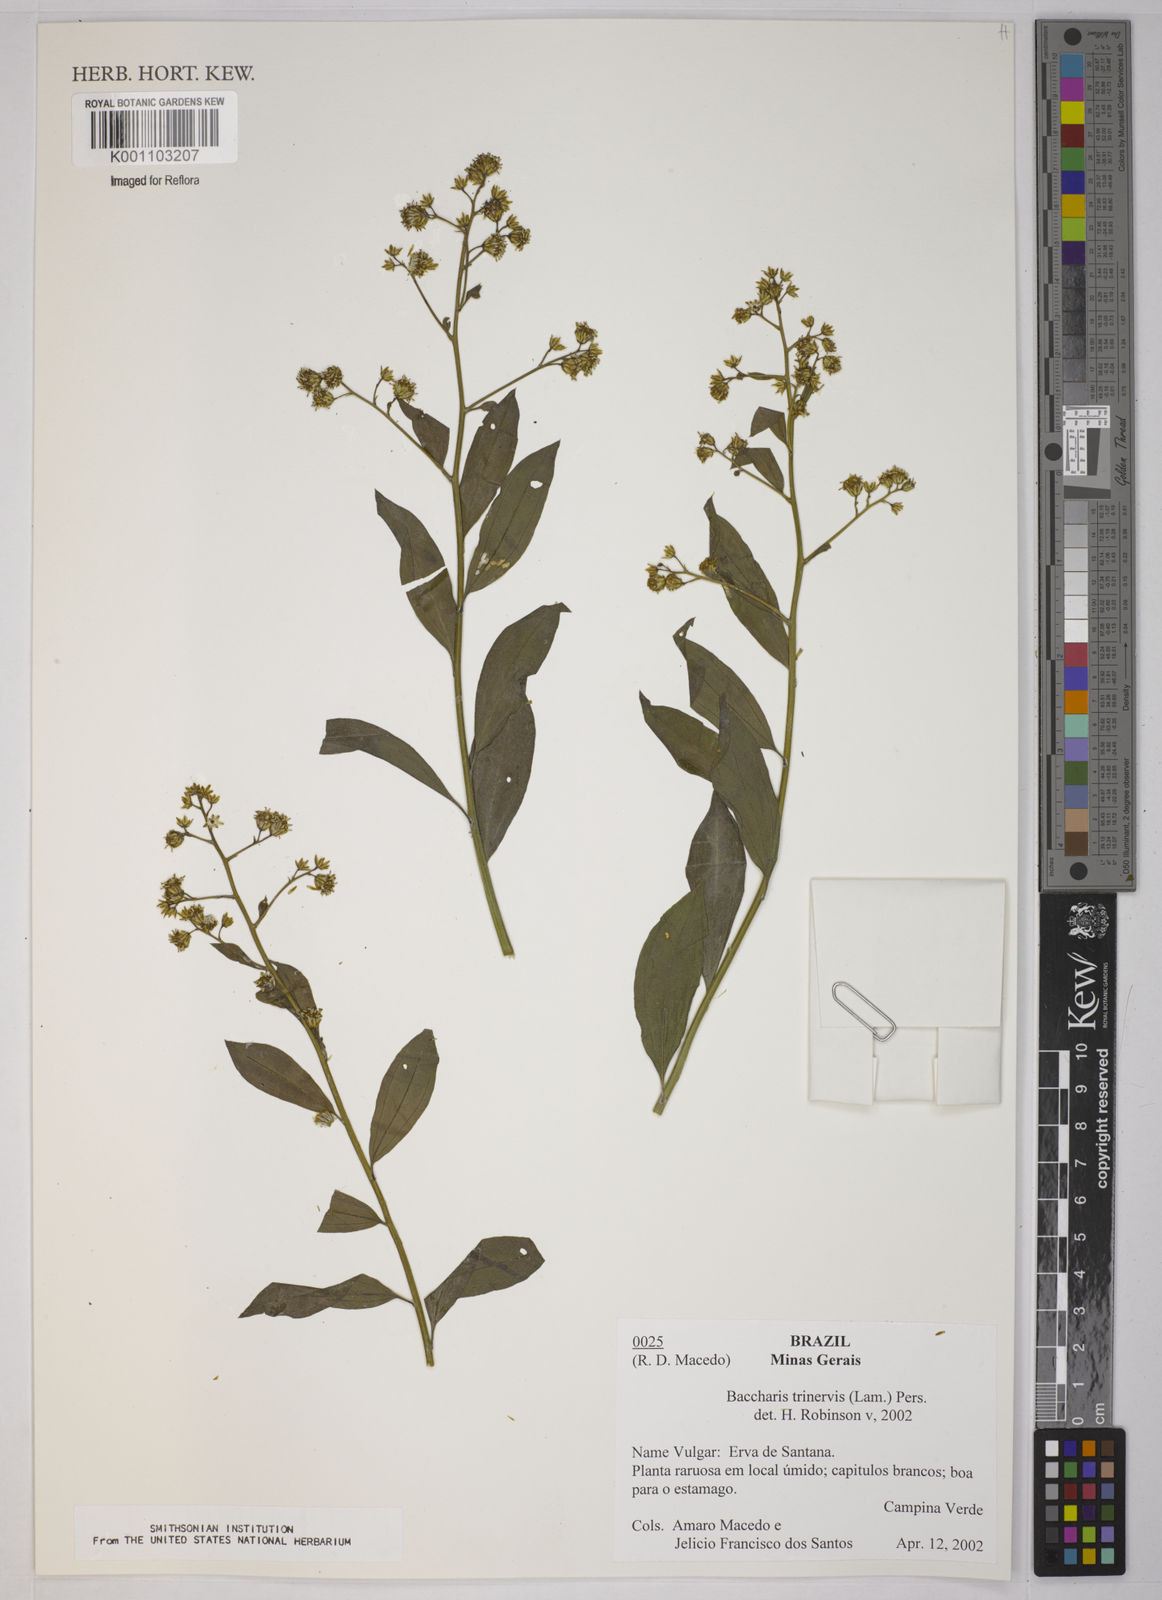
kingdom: Plantae
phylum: Tracheophyta
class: Magnoliopsida
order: Asterales
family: Asteraceae
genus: Baccharis
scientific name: Baccharis trinervis
